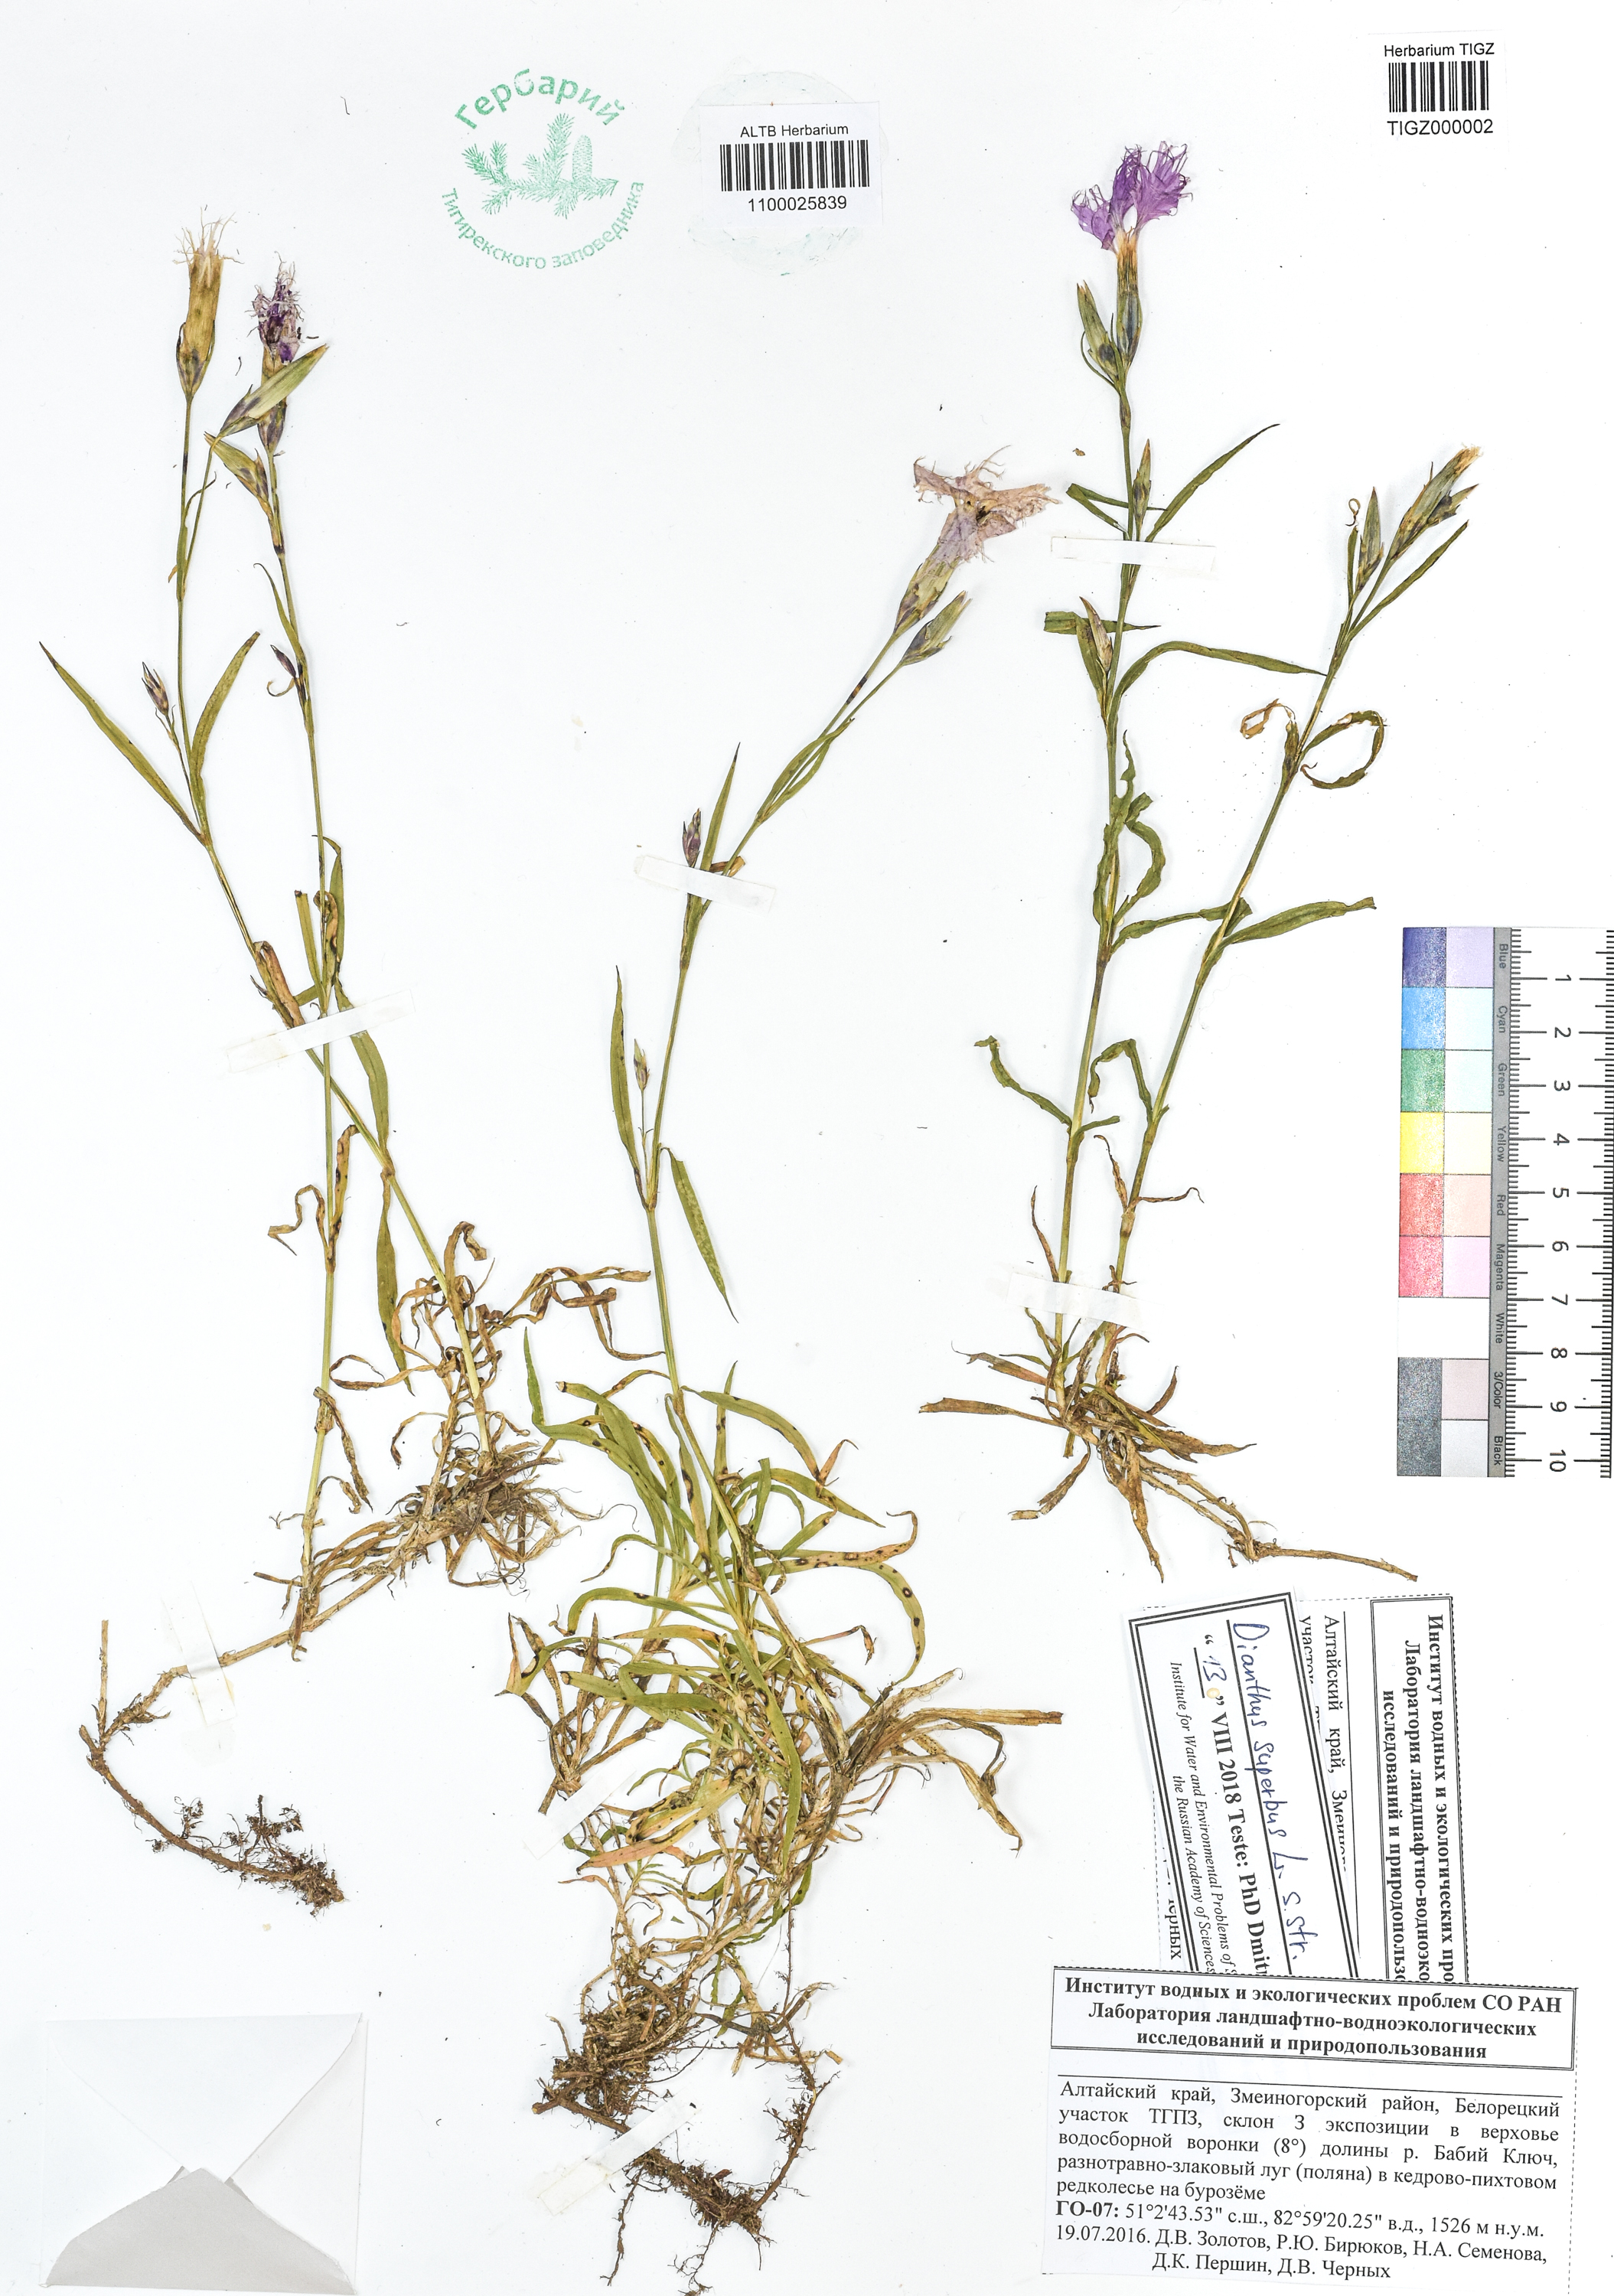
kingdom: Plantae
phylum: Tracheophyta
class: Magnoliopsida
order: Caryophyllales
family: Caryophyllaceae
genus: Dianthus
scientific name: Dianthus superbus
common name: Fringed pink
